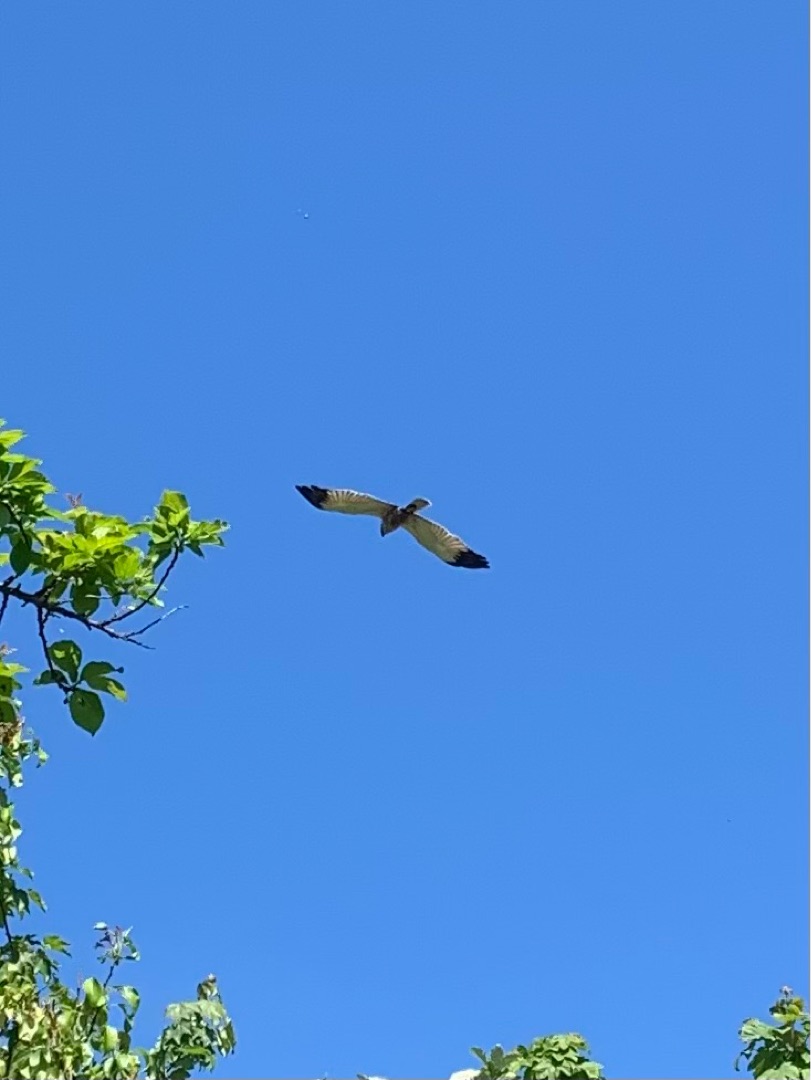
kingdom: Animalia
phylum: Chordata
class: Aves
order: Accipitriformes
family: Accipitridae
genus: Circus
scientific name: Circus aeruginosus
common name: Rørhøg
